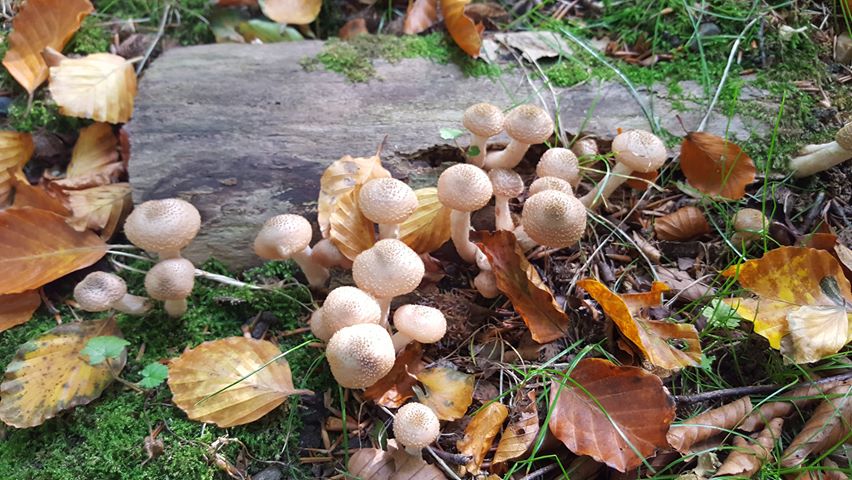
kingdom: Fungi
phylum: Basidiomycota
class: Agaricomycetes
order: Agaricales
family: Physalacriaceae
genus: Armillaria
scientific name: Armillaria lutea
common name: køllestokket honningsvamp
